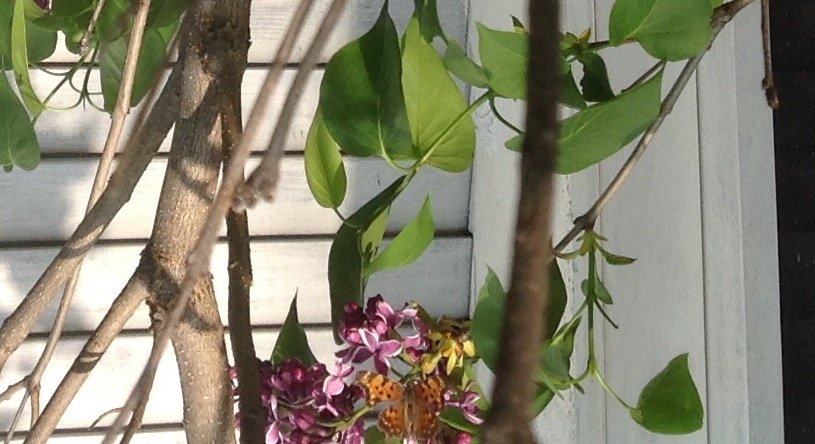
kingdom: Animalia
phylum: Arthropoda
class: Insecta
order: Lepidoptera
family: Nymphalidae
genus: Polygonia
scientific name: Polygonia
